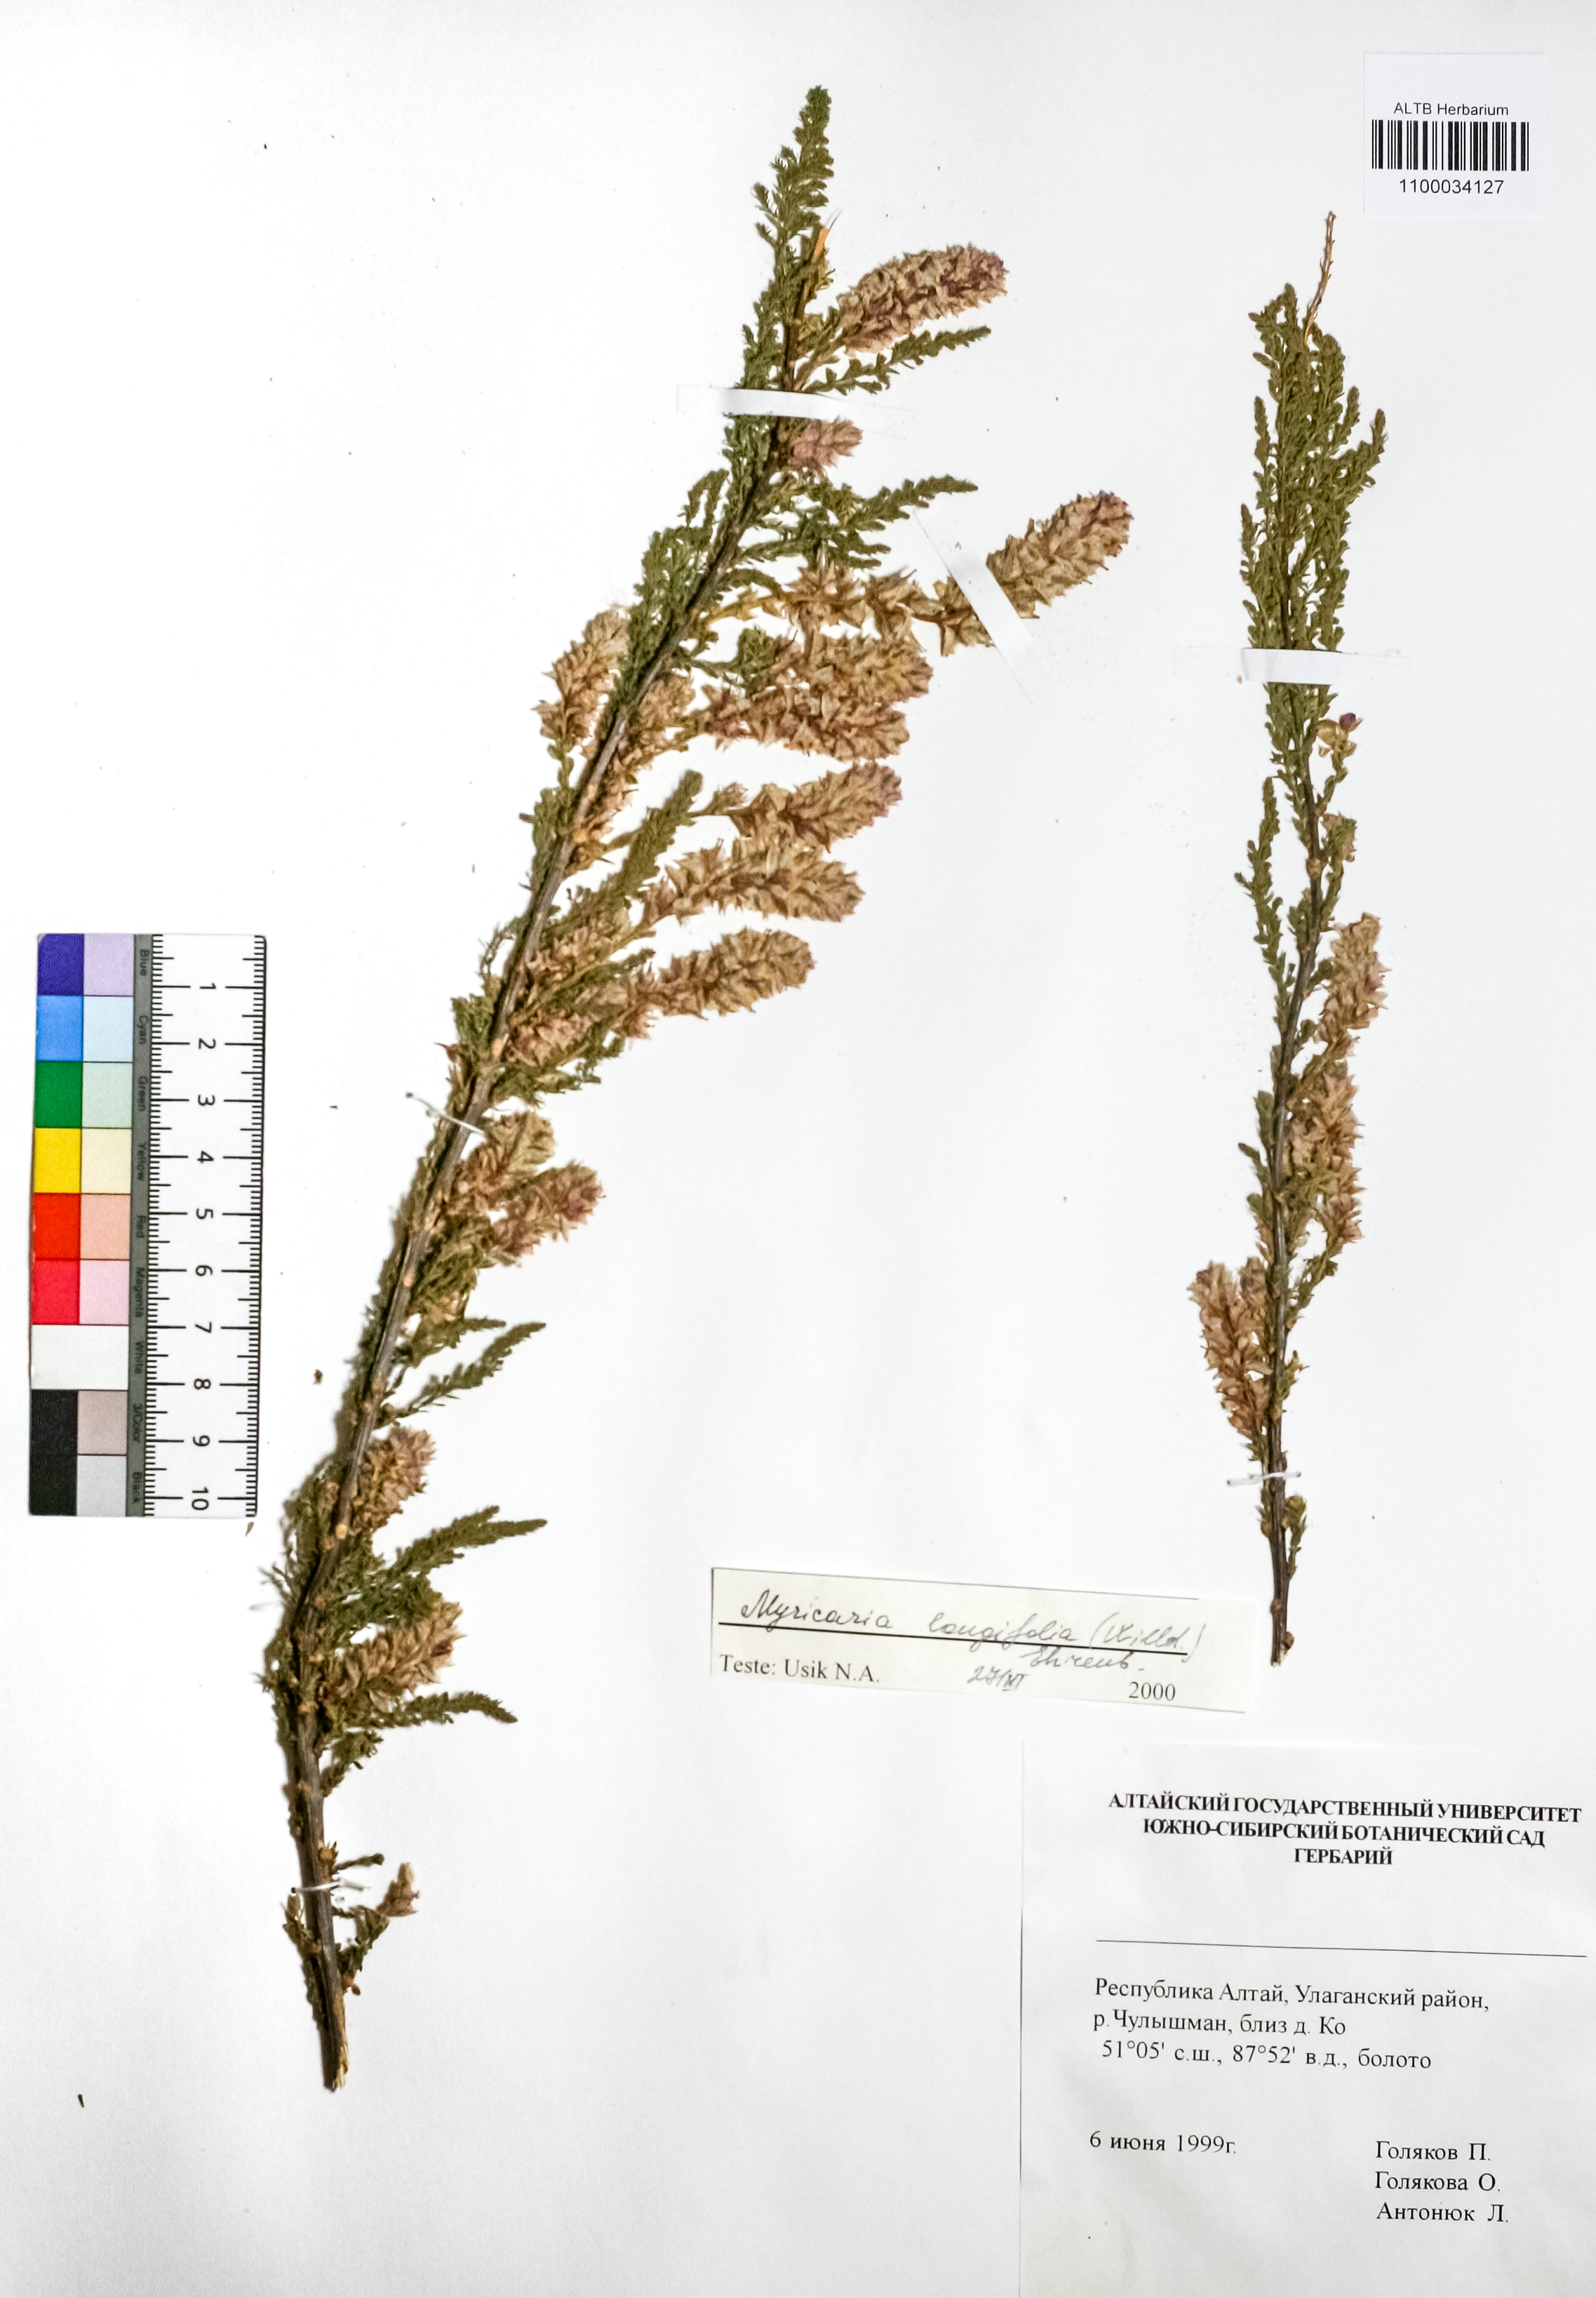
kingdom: Plantae
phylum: Tracheophyta
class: Magnoliopsida
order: Caryophyllales
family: Tamaricaceae
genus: Myricaria
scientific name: Myricaria longifolia
